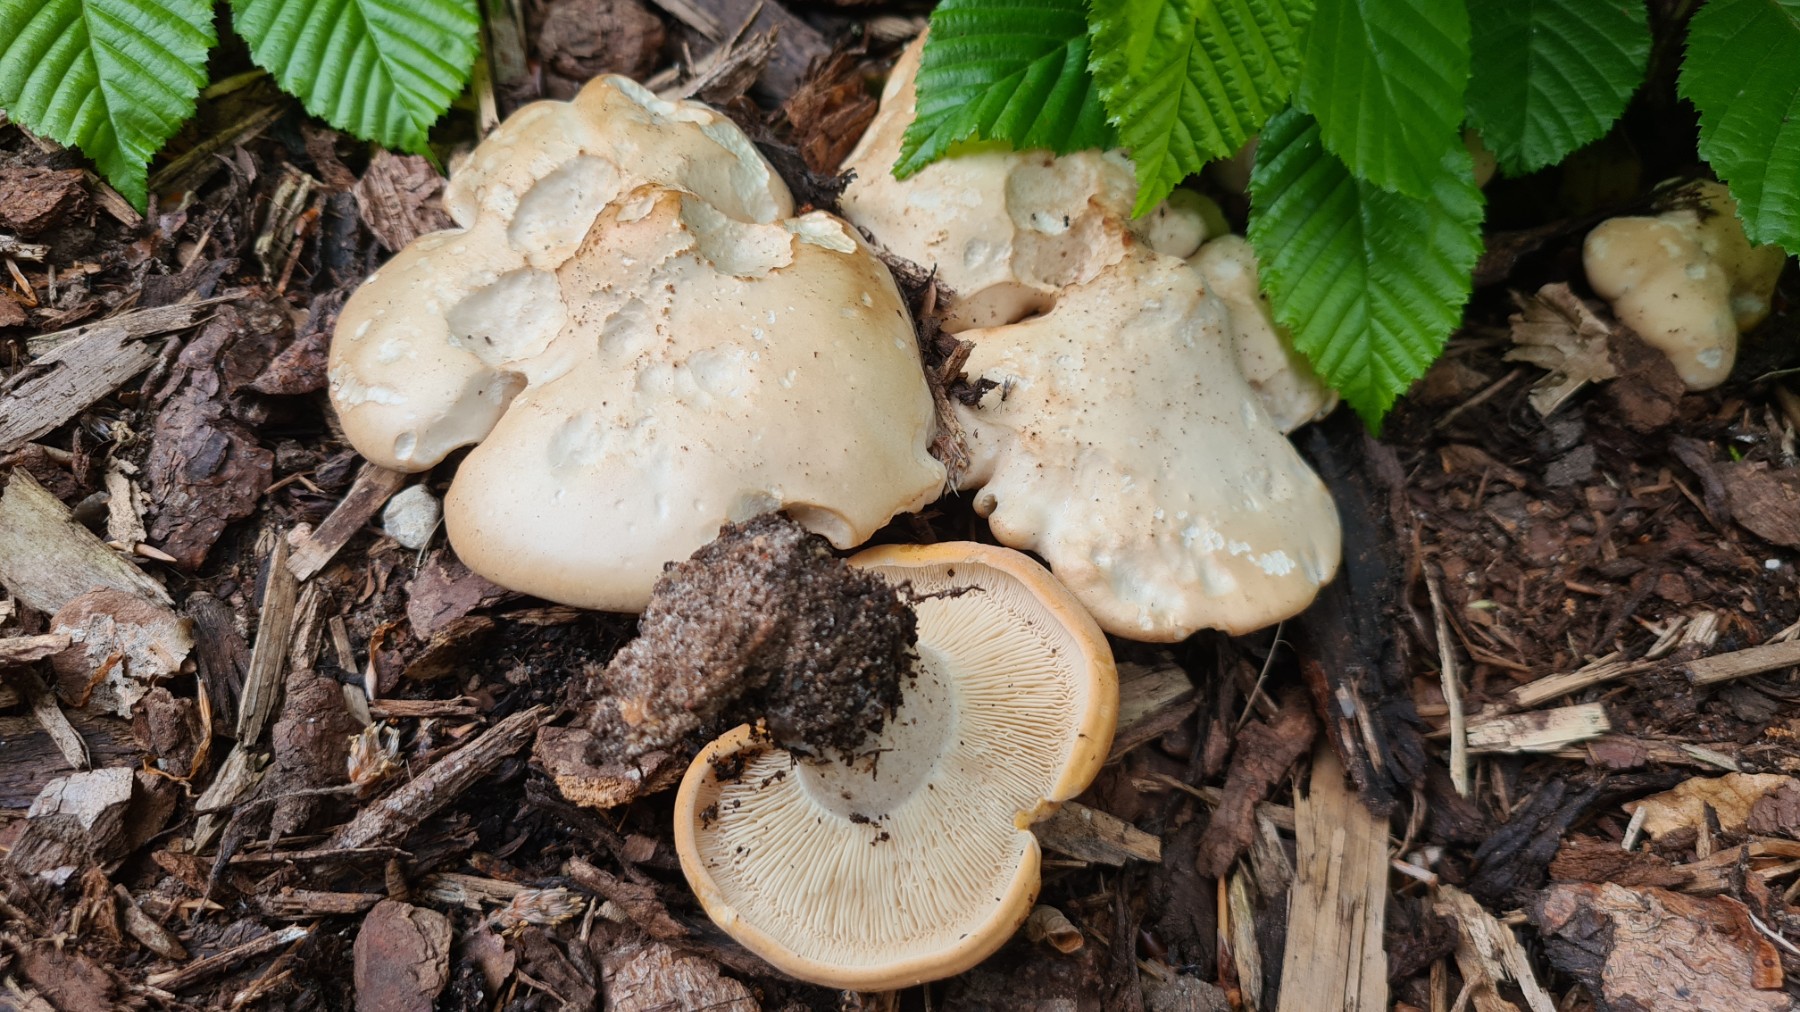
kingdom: Fungi
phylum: Basidiomycota
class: Agaricomycetes
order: Agaricales
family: Lyophyllaceae
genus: Calocybe
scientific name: Calocybe gambosa
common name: vårmusseron
